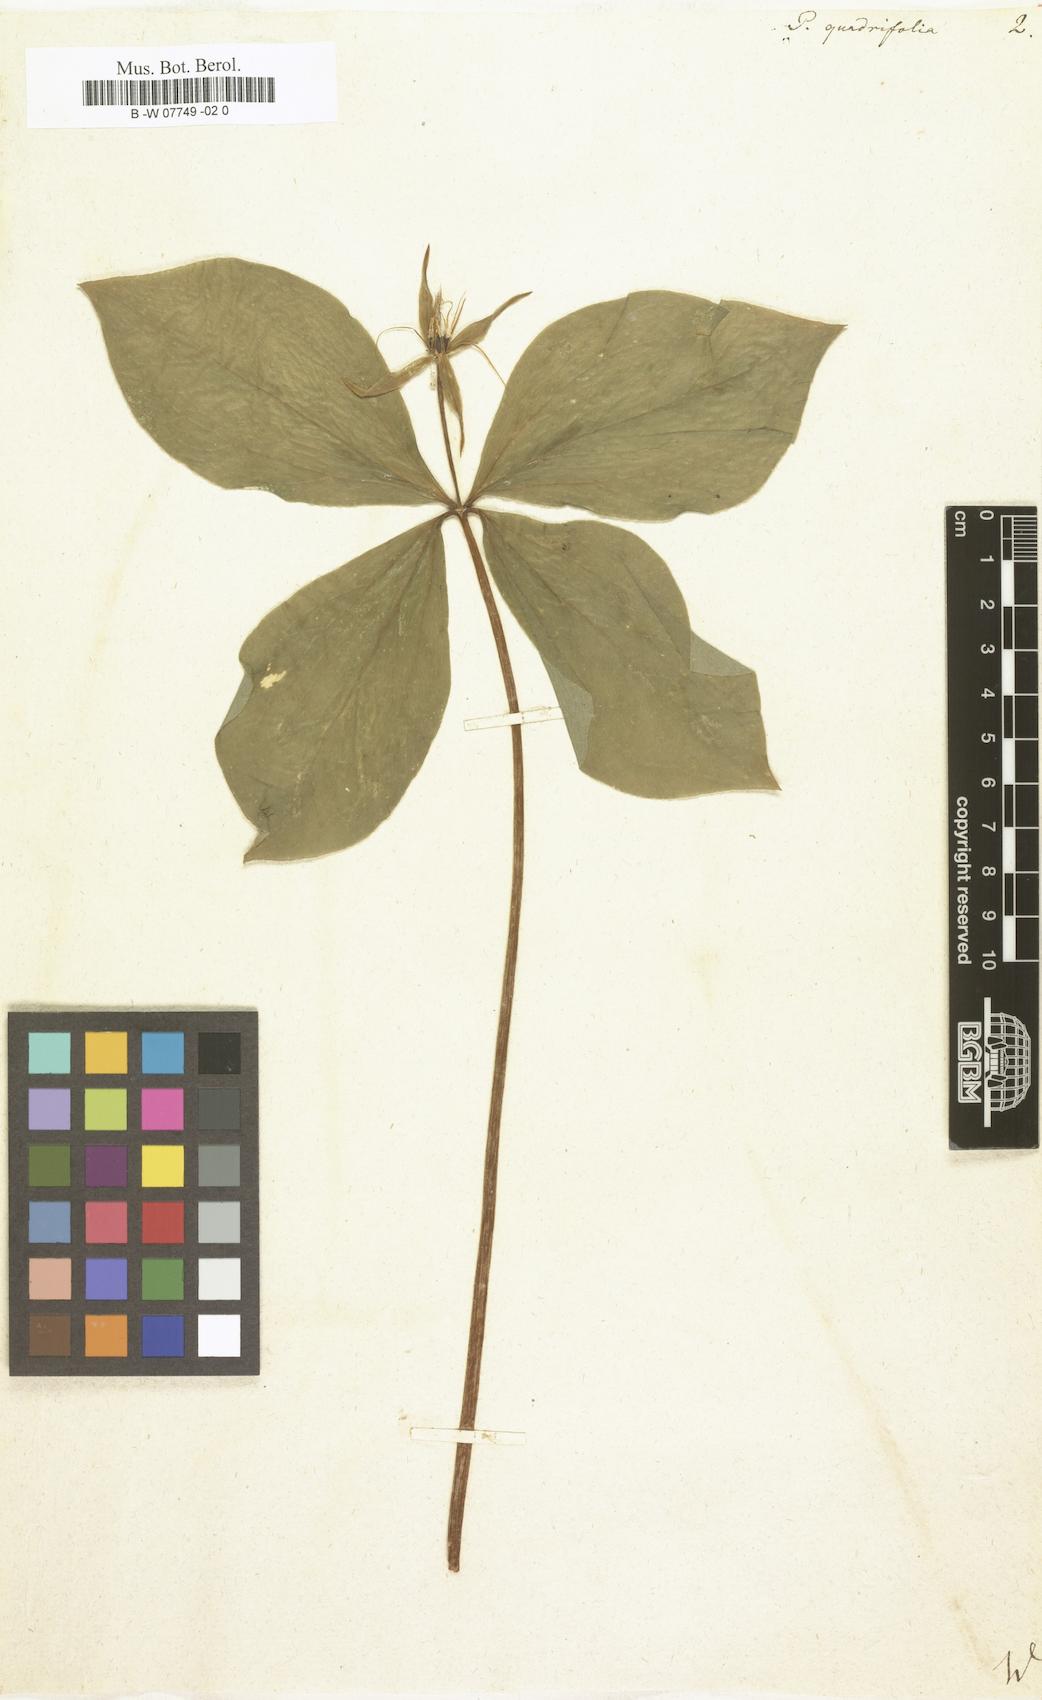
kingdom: Plantae
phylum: Tracheophyta
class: Liliopsida
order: Liliales
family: Melanthiaceae
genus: Paris
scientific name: Paris quadrifolia
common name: Herb-paris
